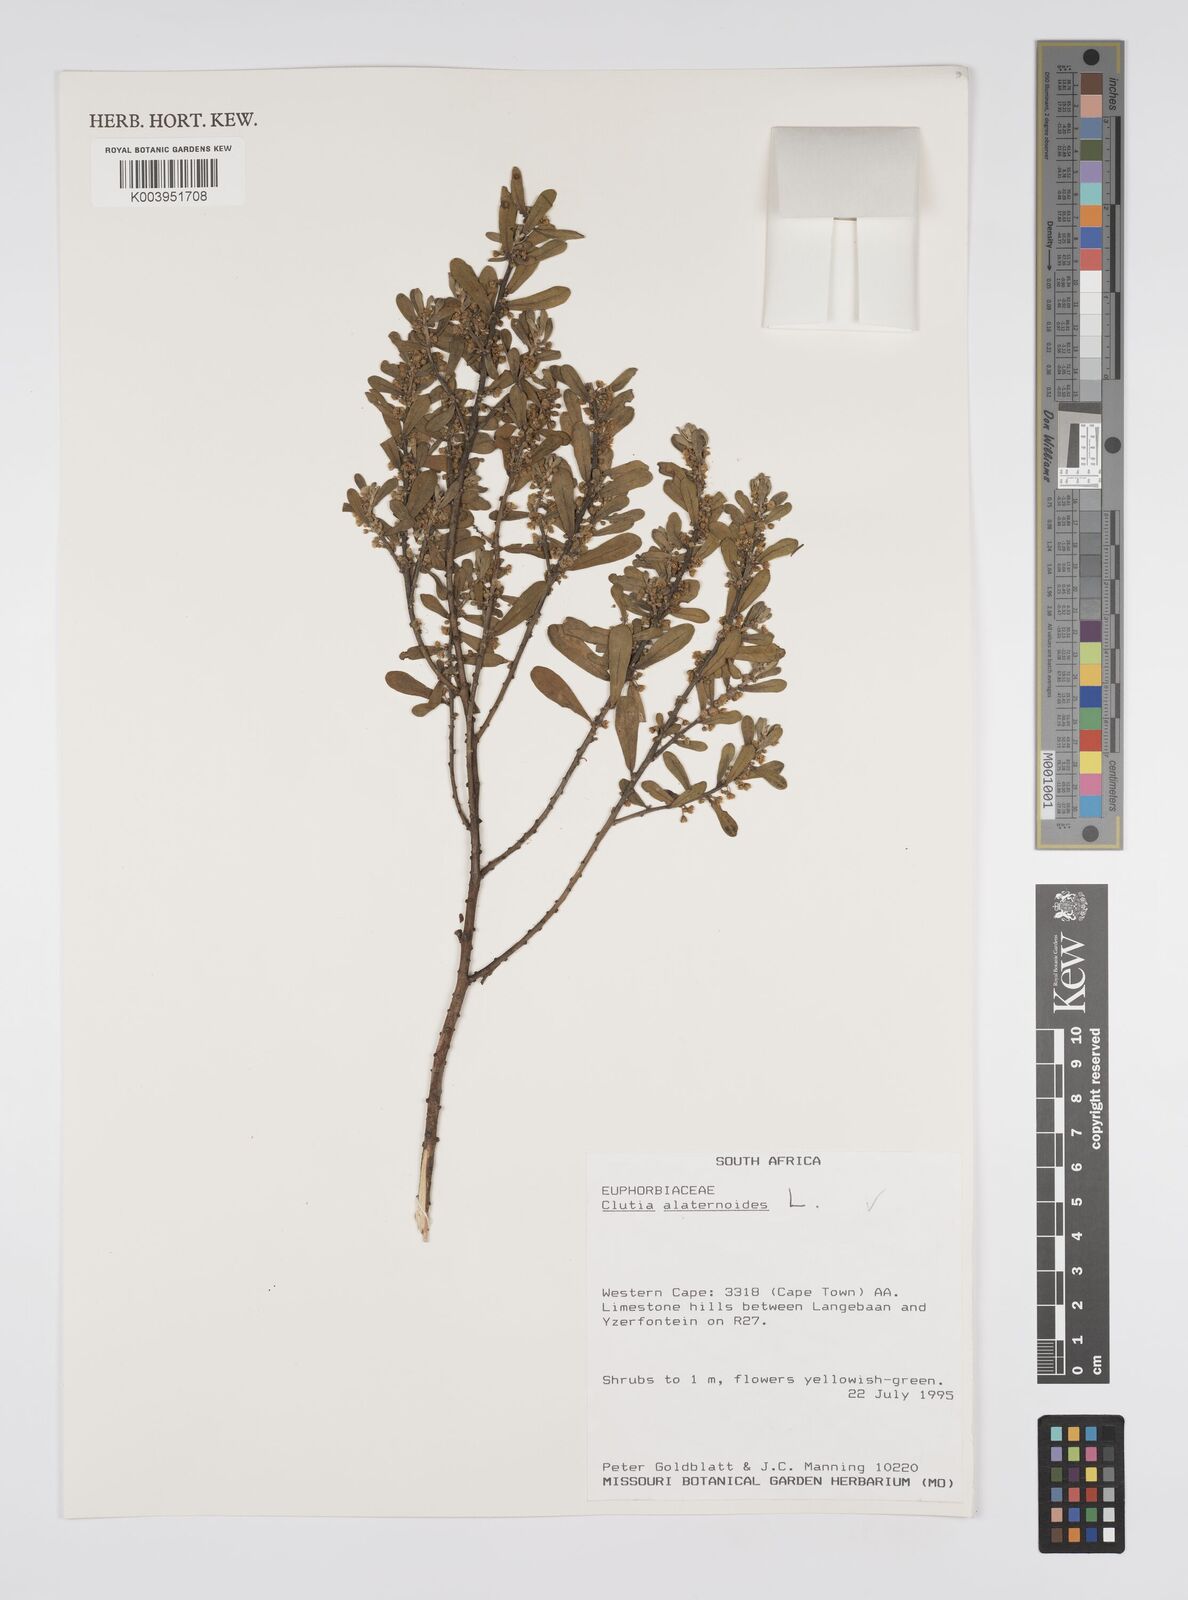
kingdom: Plantae
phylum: Tracheophyta
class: Magnoliopsida
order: Malpighiales
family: Peraceae
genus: Clutia
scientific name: Clutia alaternoides
